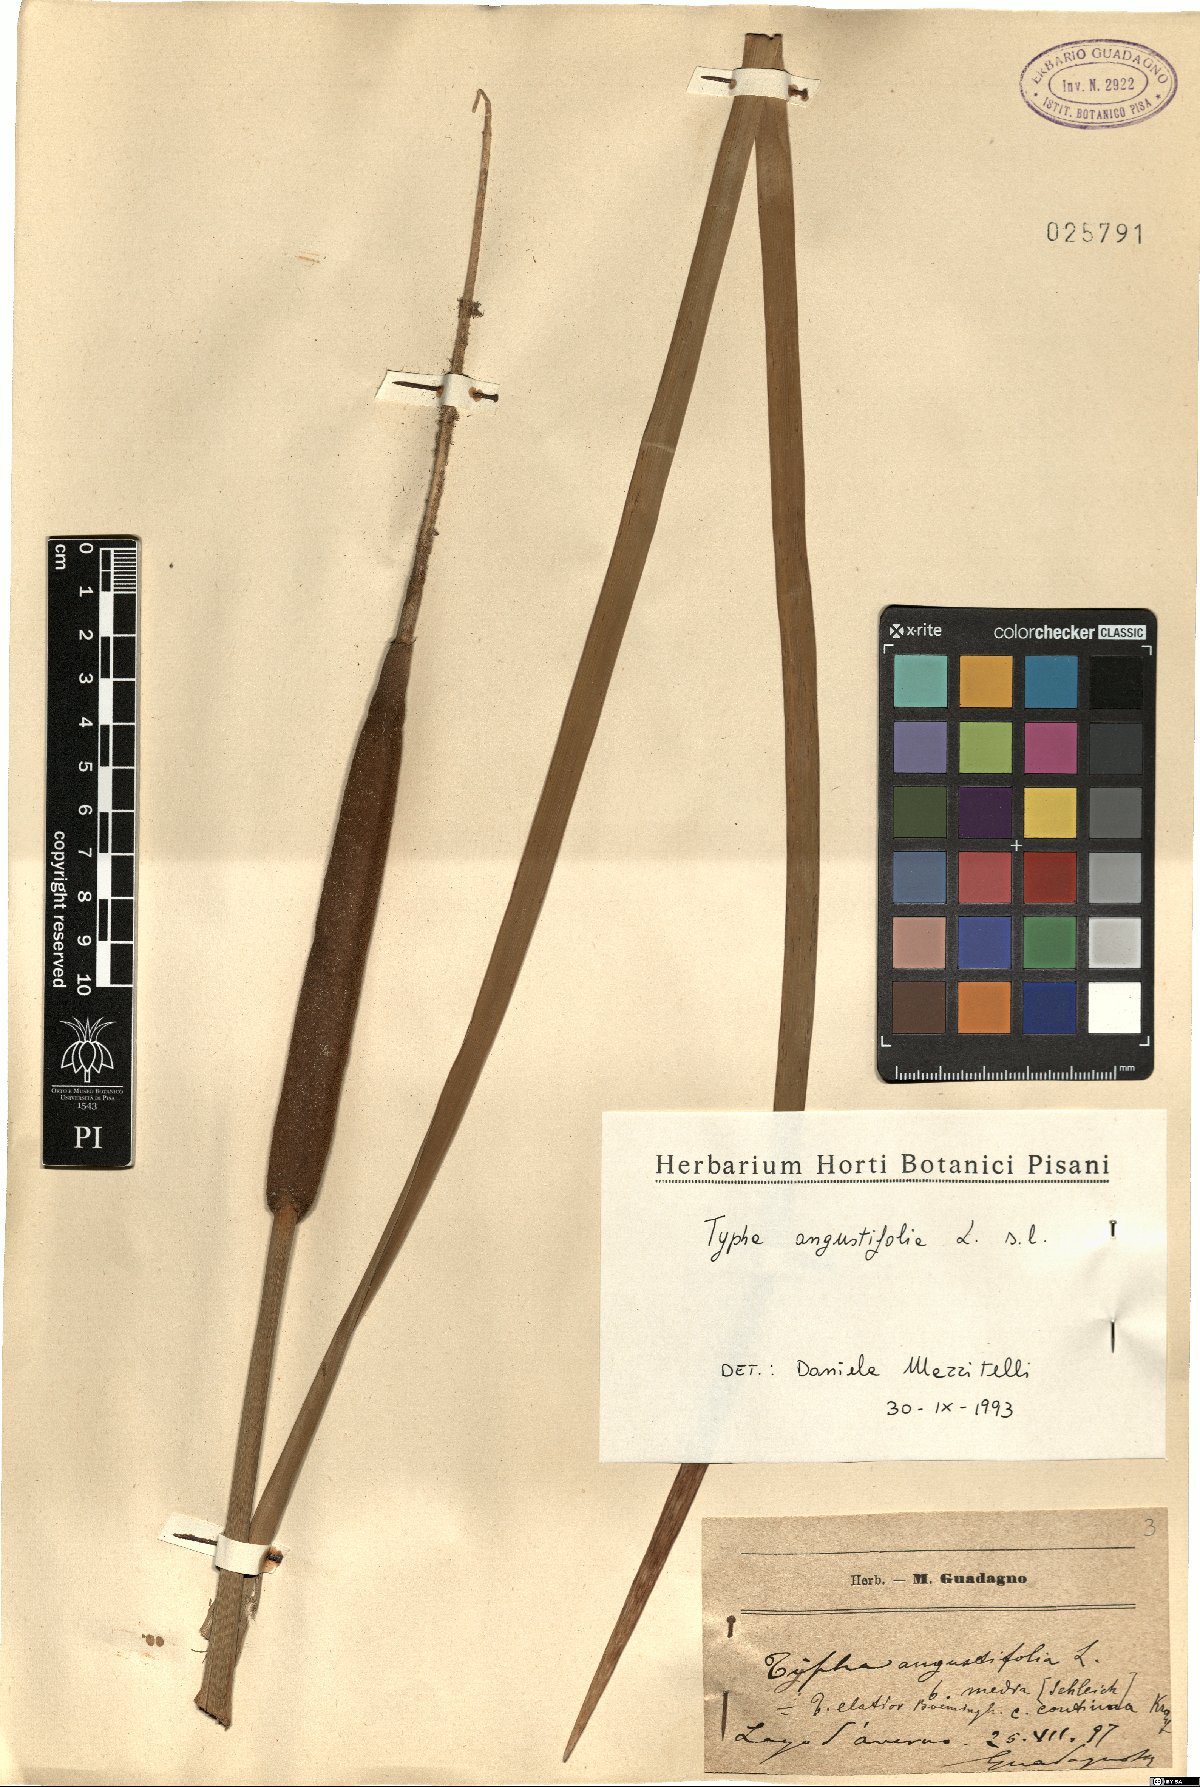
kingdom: Plantae
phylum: Tracheophyta
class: Liliopsida
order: Poales
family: Typhaceae
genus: Typha
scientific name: Typha angustifolia
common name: Lesser bulrush
